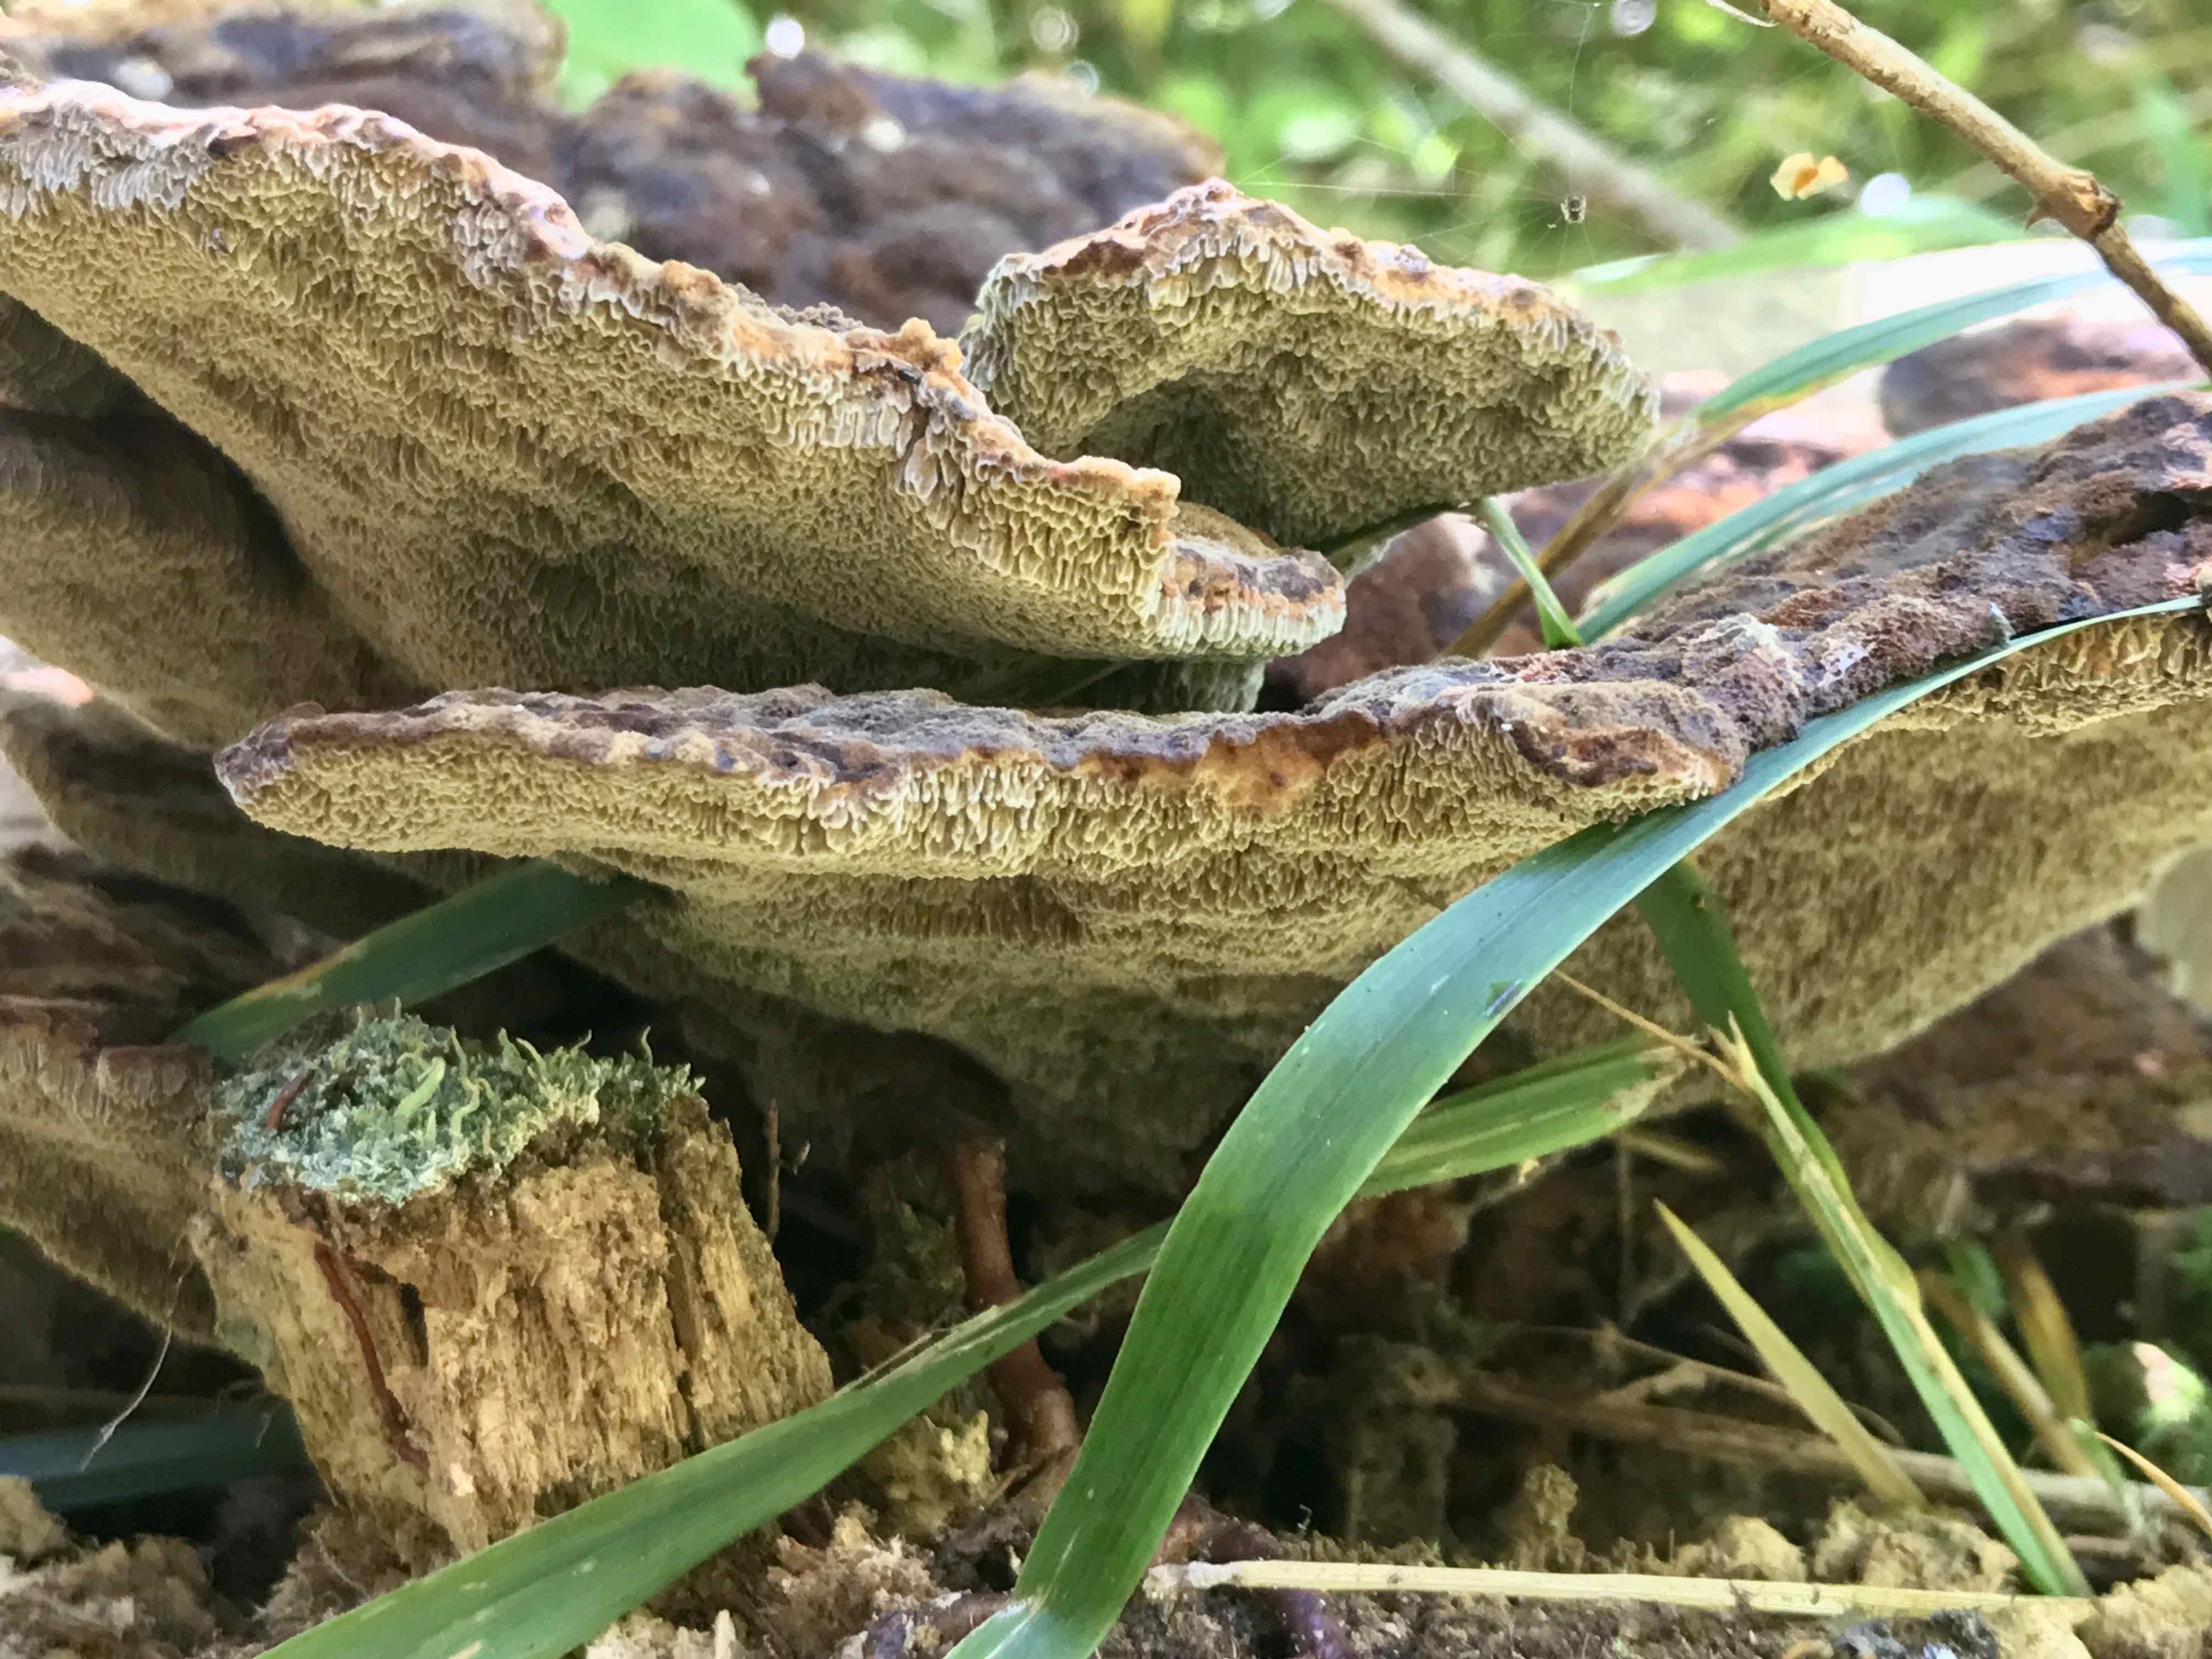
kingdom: Fungi
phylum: Basidiomycota
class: Agaricomycetes
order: Polyporales
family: Laetiporaceae
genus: Phaeolus
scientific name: Phaeolus schweinitzii
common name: brunporesvamp
